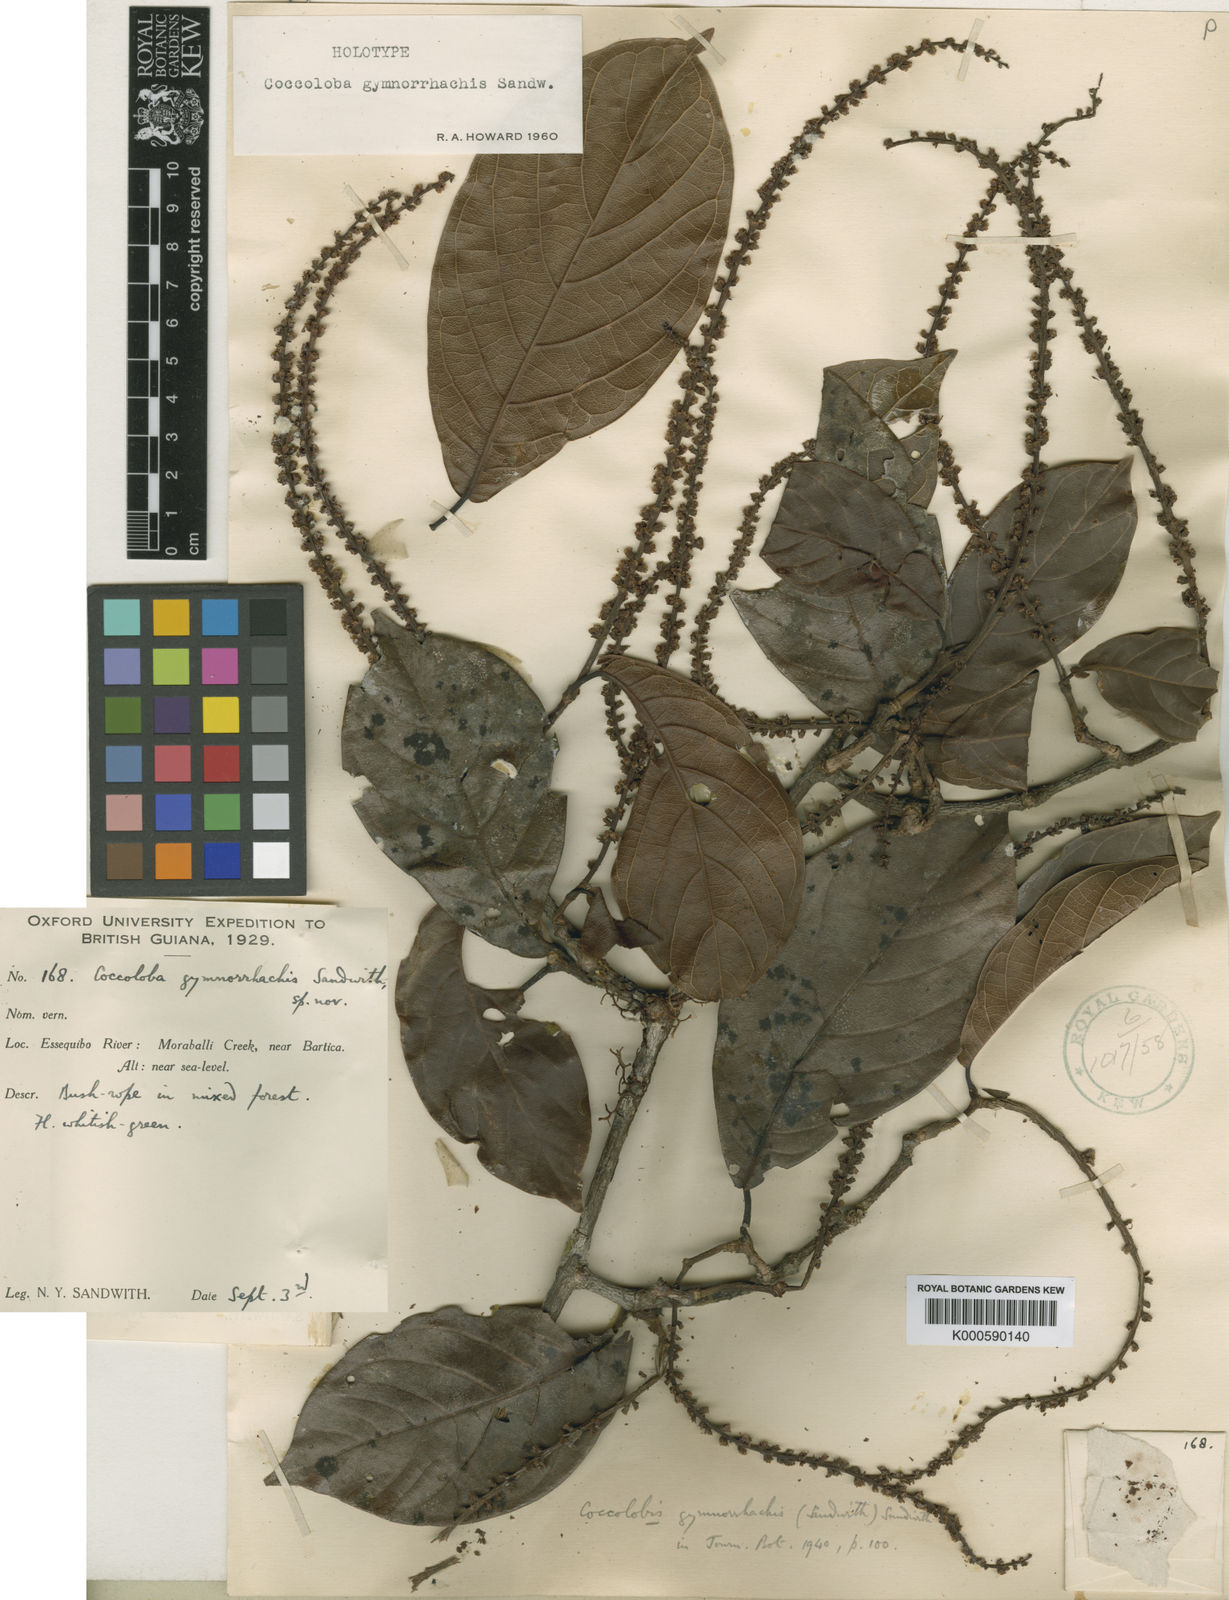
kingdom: Plantae
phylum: Tracheophyta
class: Magnoliopsida
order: Caryophyllales
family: Polygonaceae
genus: Coccoloba
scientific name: Coccoloba gymnorrhachis
